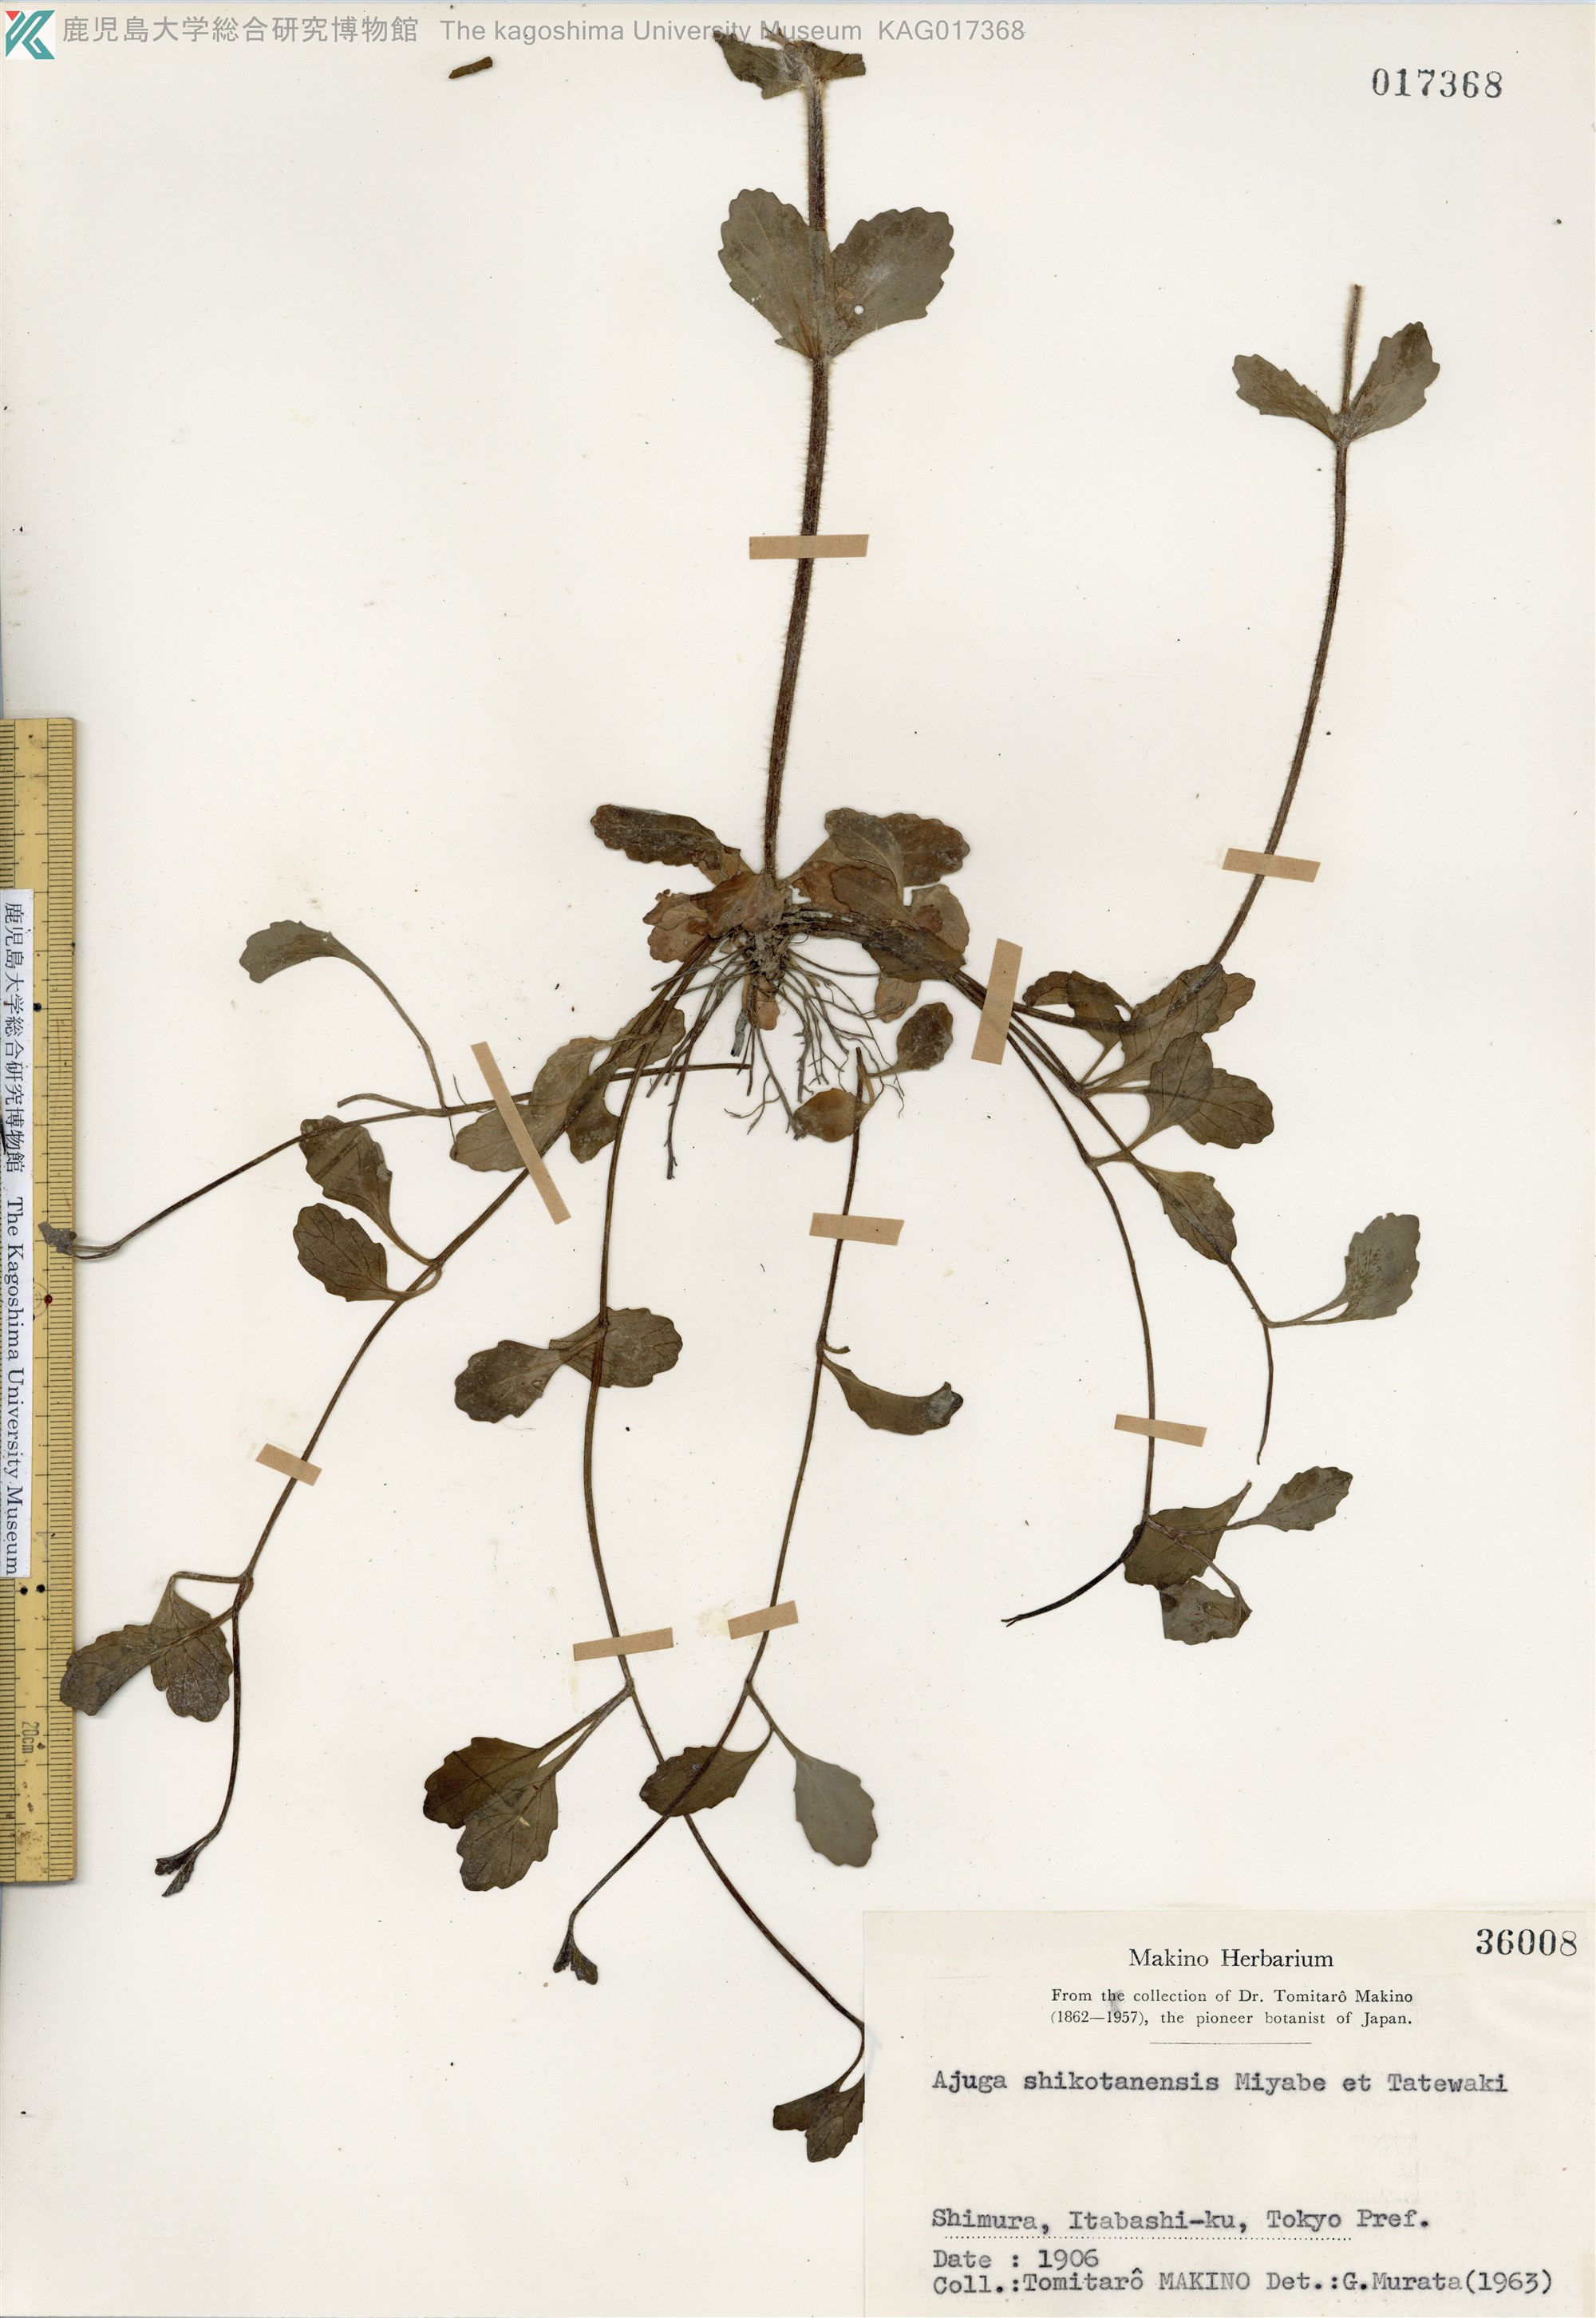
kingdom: Plantae
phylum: Tracheophyta
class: Magnoliopsida
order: Lamiales
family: Lamiaceae
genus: Ajuga
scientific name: Ajuga shikotanensis
